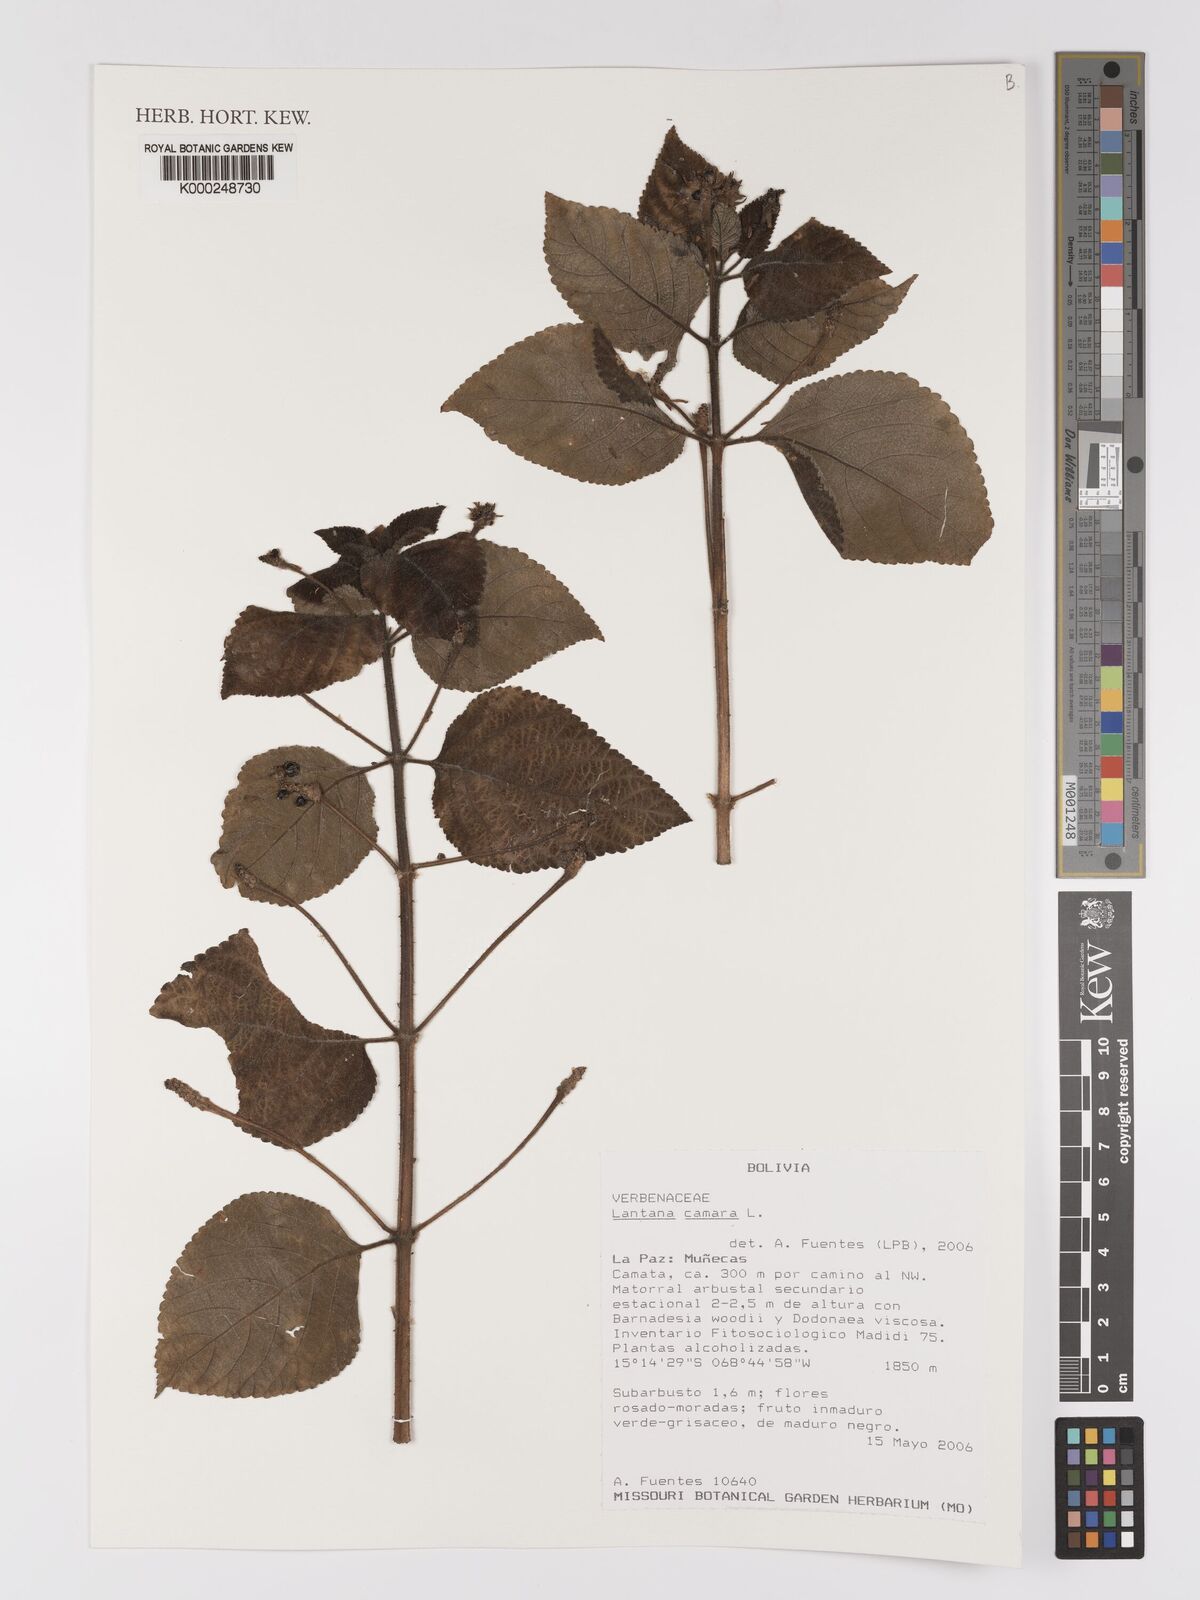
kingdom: Plantae
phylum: Tracheophyta
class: Magnoliopsida
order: Lamiales
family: Verbenaceae
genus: Lantana
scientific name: Lantana camara
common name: Lantana
